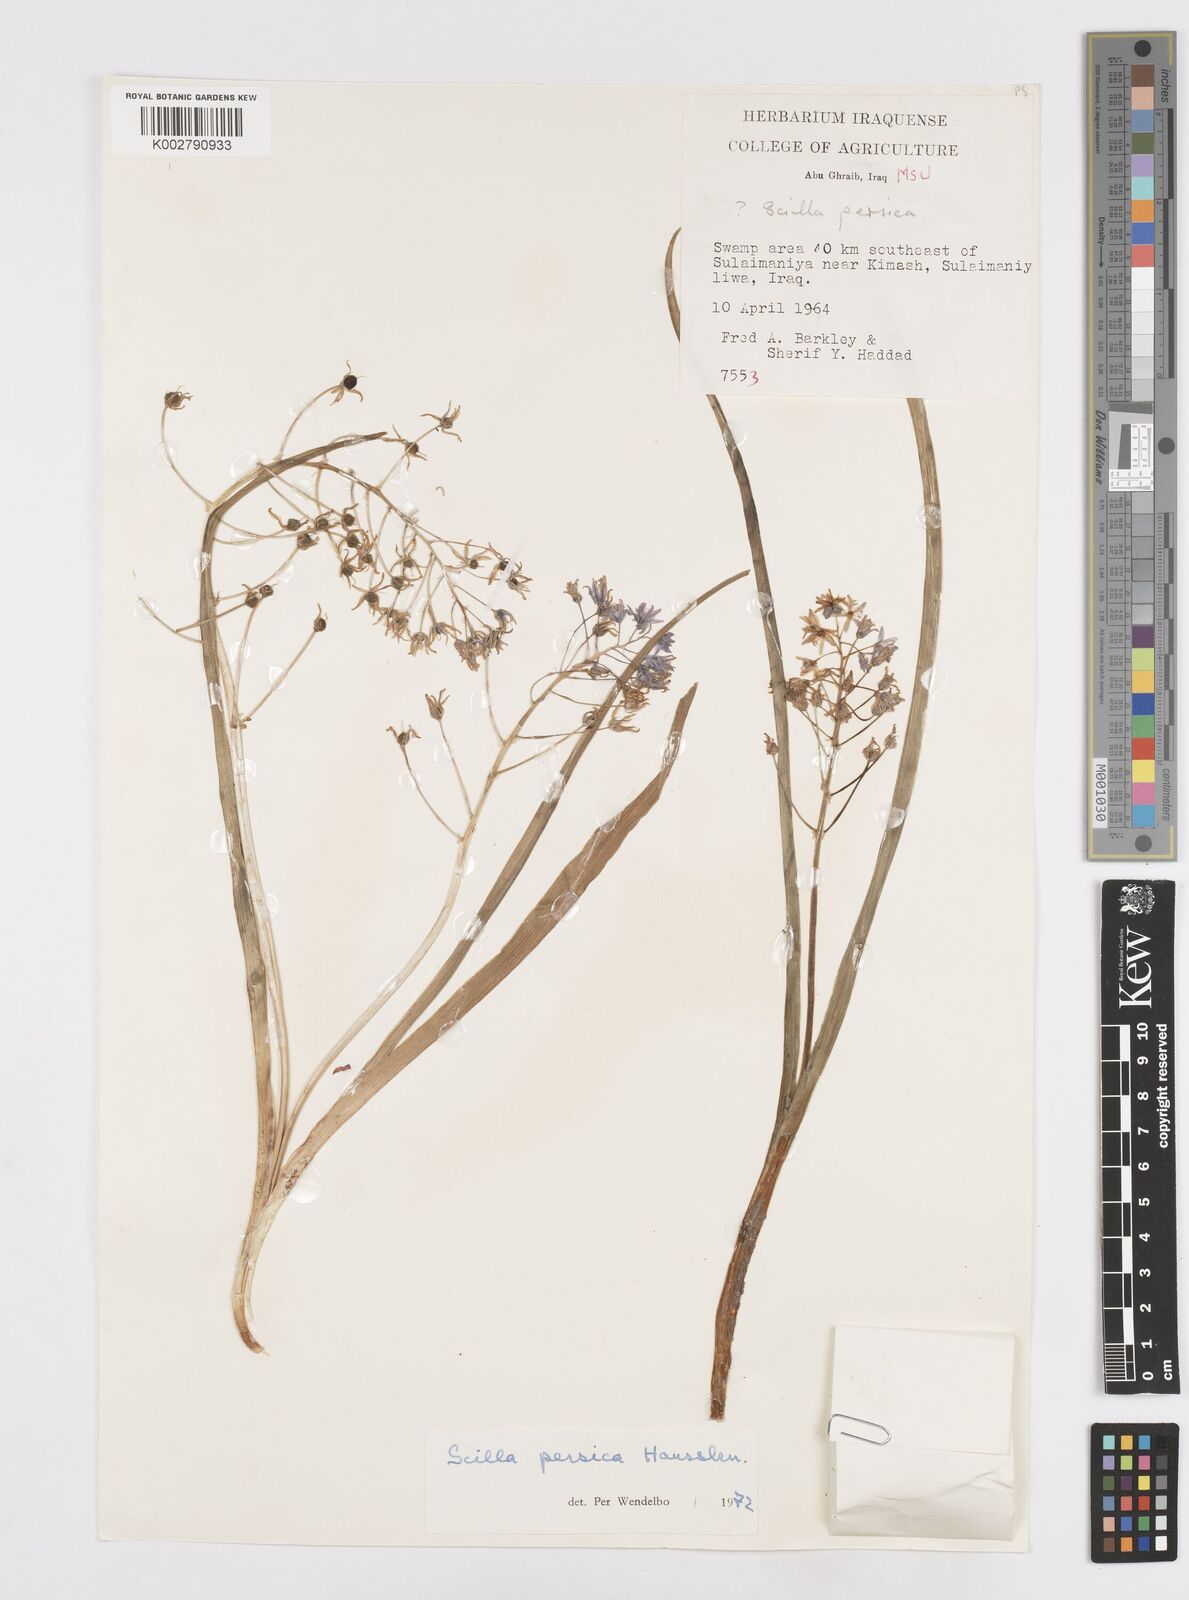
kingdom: Plantae
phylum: Tracheophyta
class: Liliopsida
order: Asparagales
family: Asparagaceae
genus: Zagrosia
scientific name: Zagrosia persica
